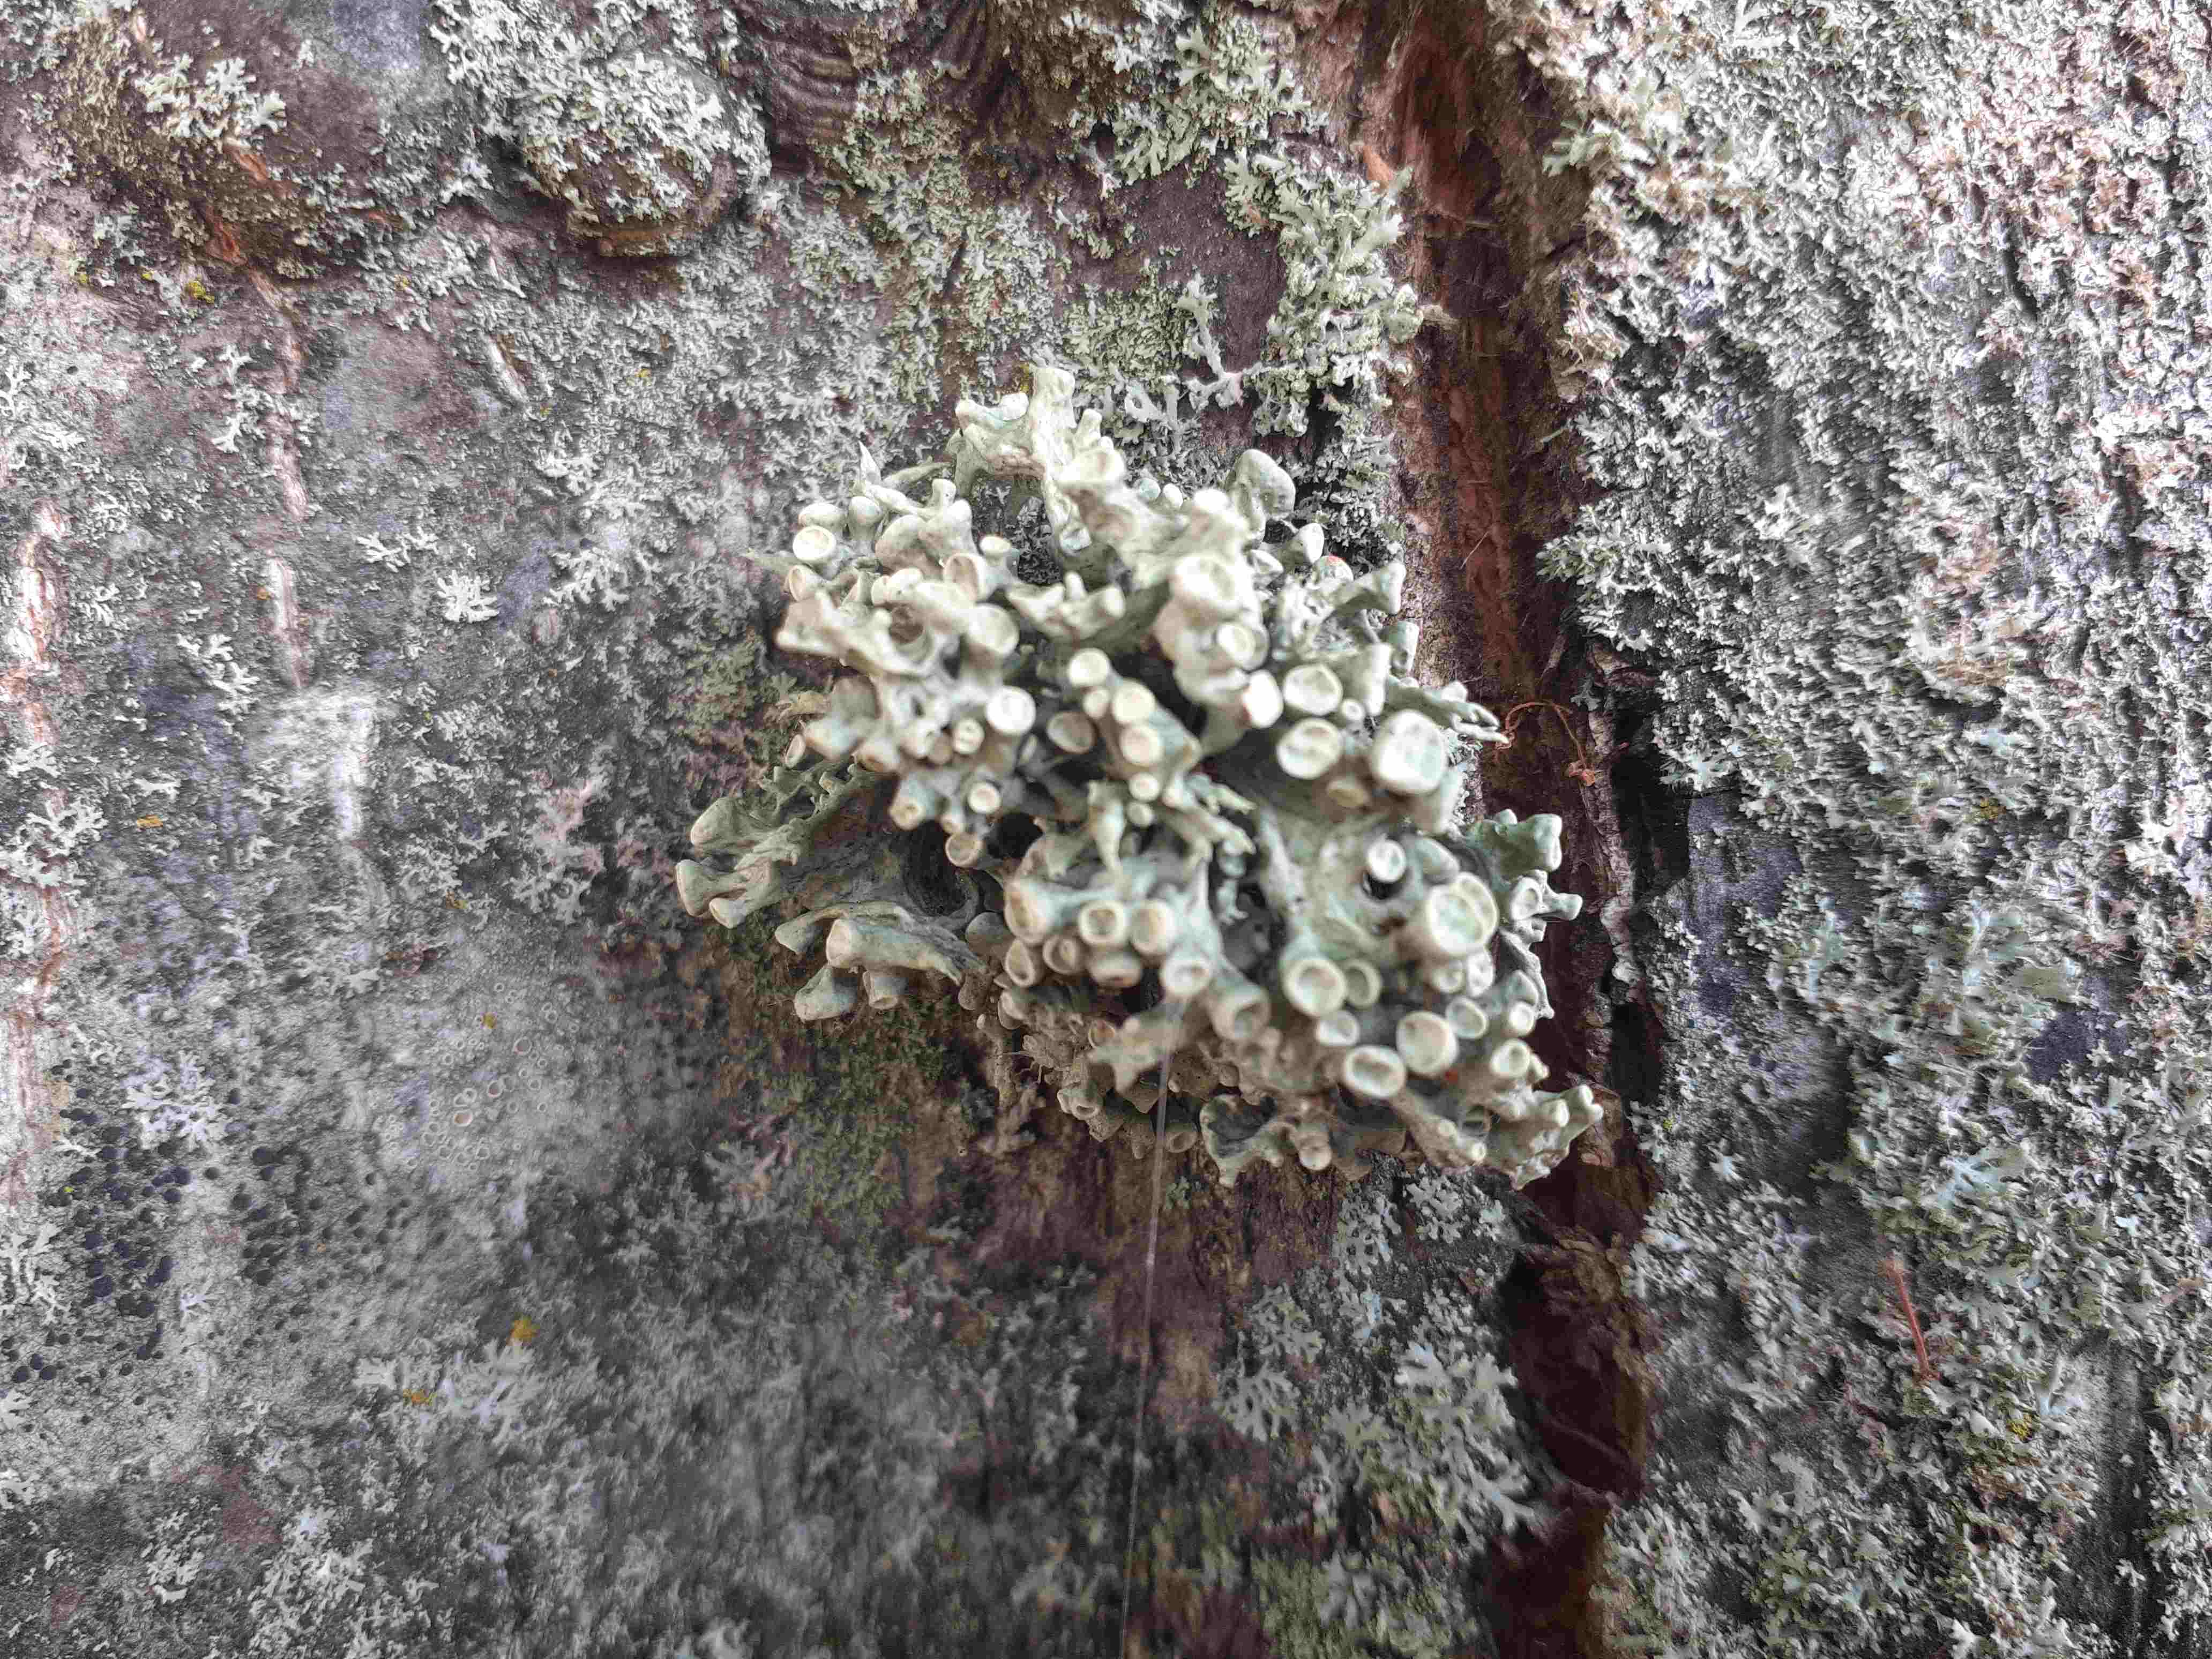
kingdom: Fungi
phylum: Ascomycota
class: Lecanoromycetes
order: Lecanorales
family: Ramalinaceae
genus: Ramalina
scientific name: Ramalina fastigiata
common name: tue-grenlav
